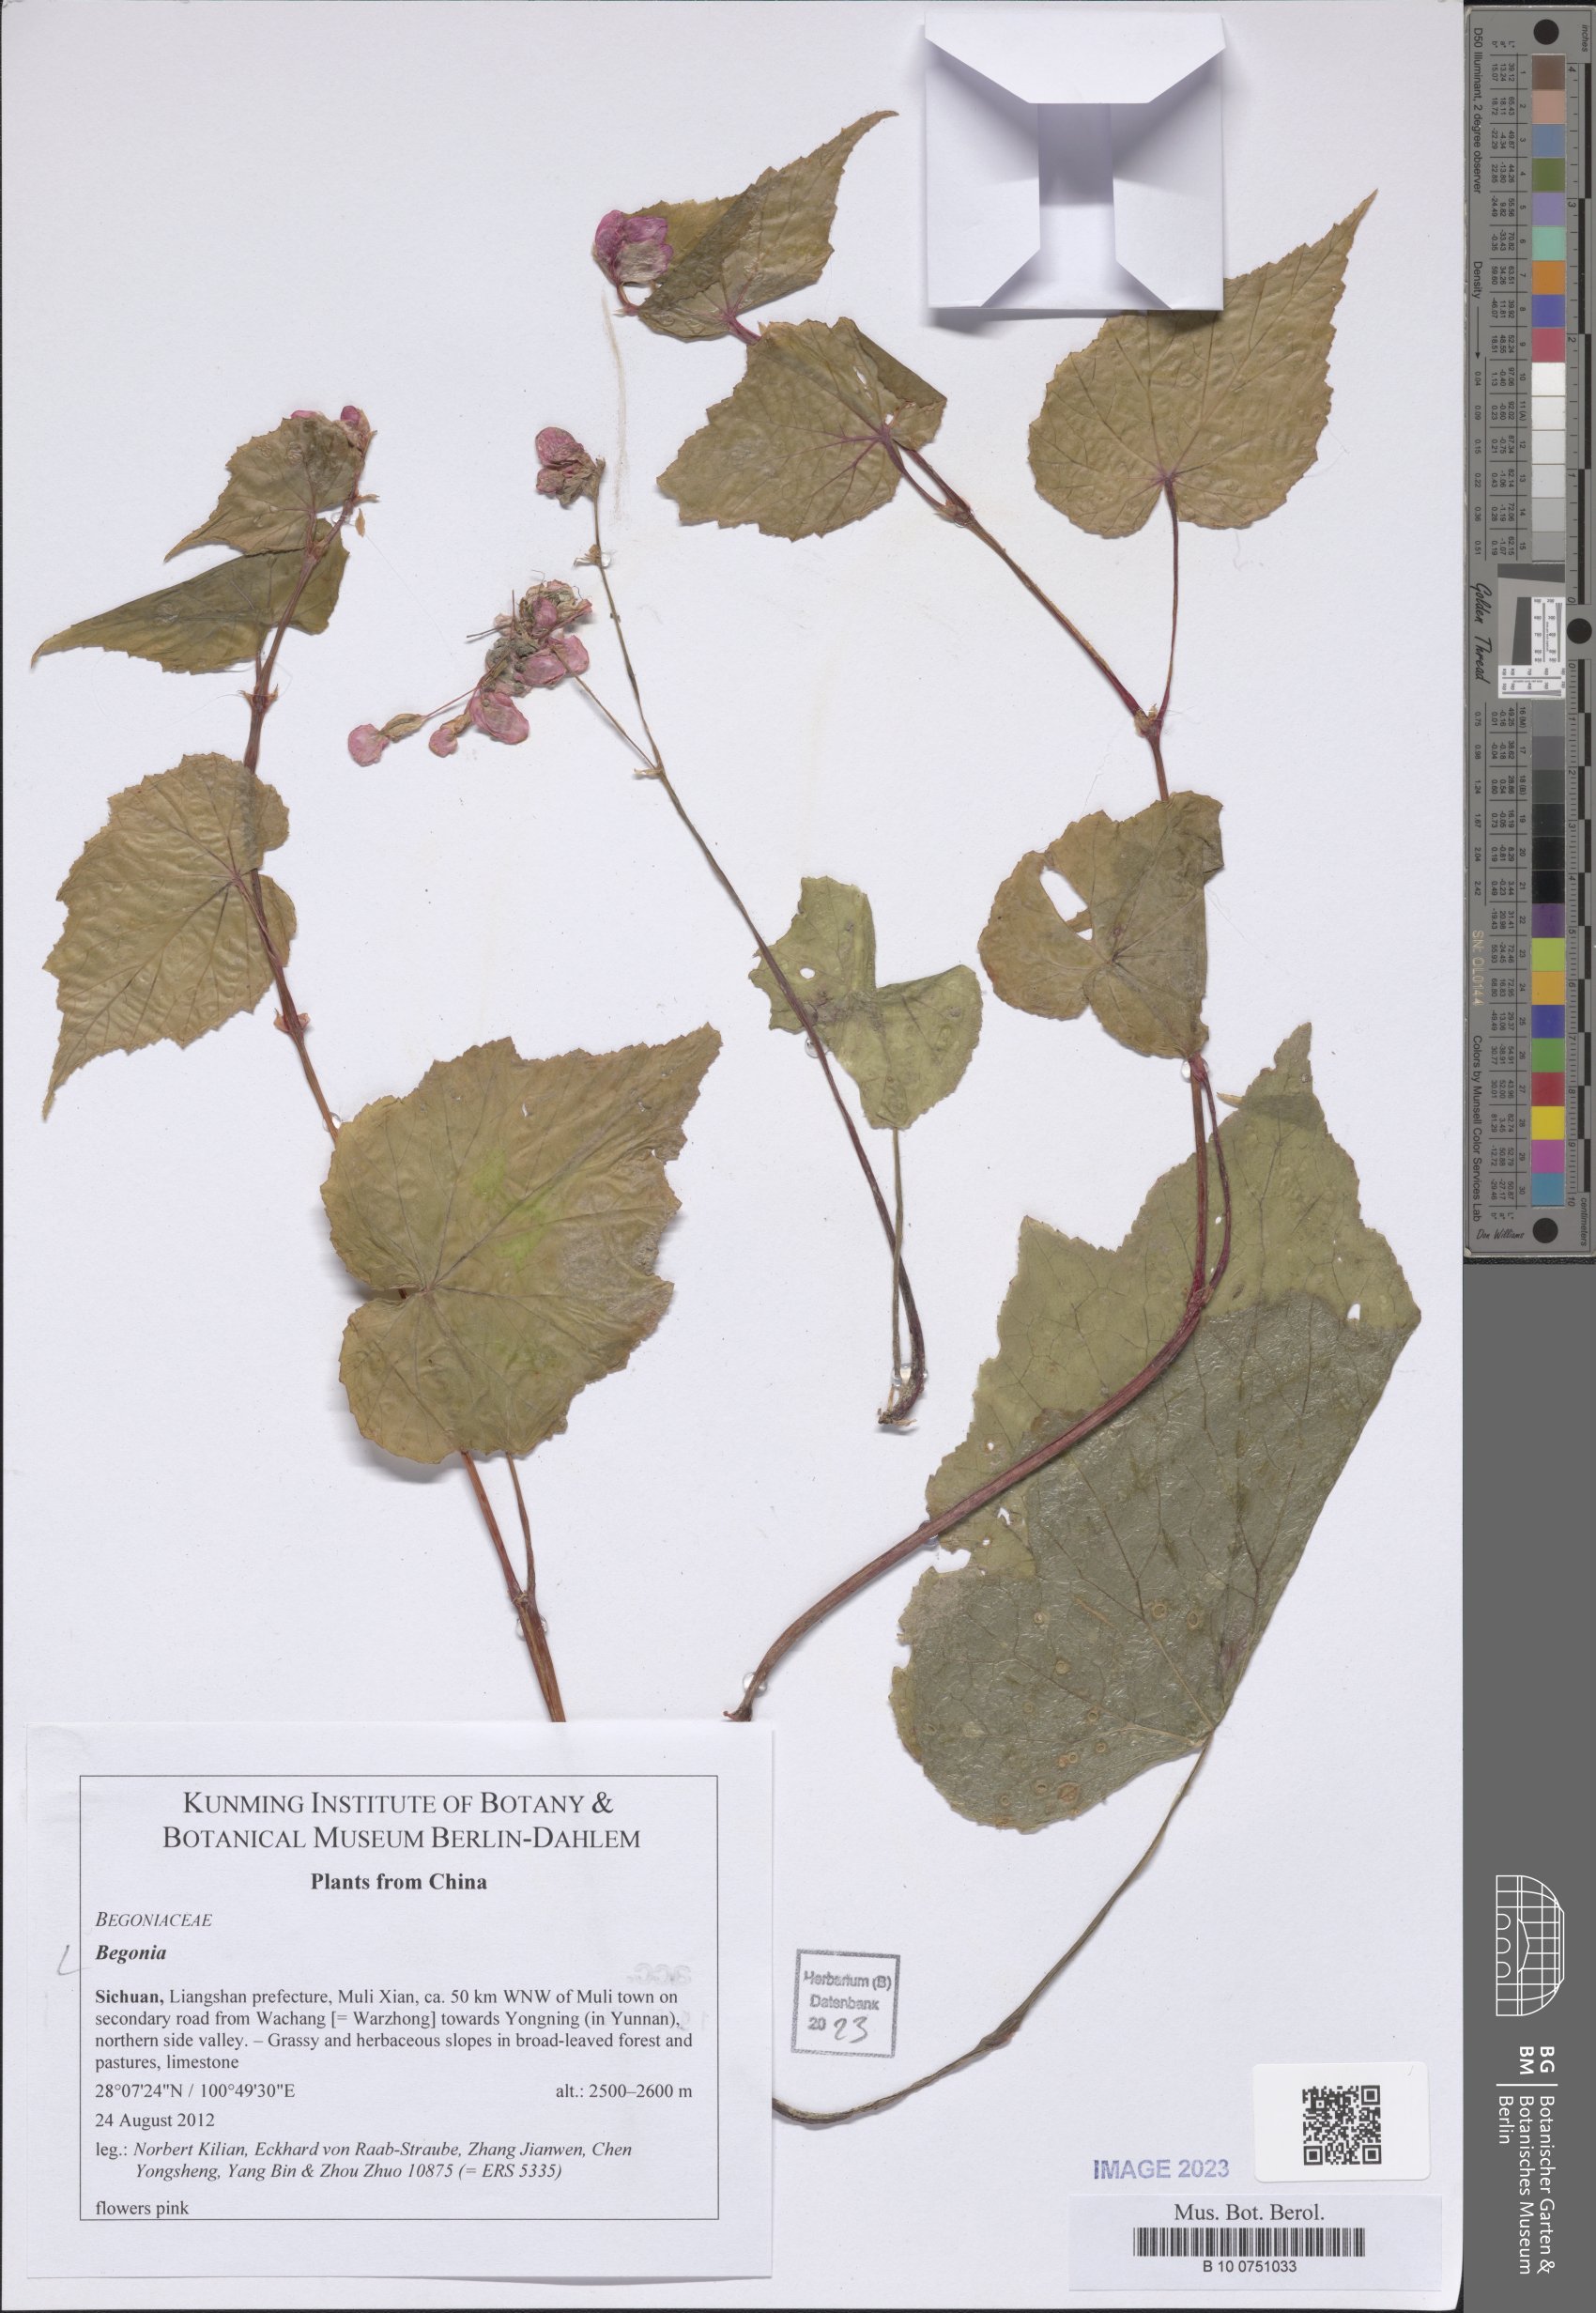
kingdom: Plantae
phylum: Tracheophyta
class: Magnoliopsida
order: Cucurbitales
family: Begoniaceae
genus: Begonia
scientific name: Begonia
